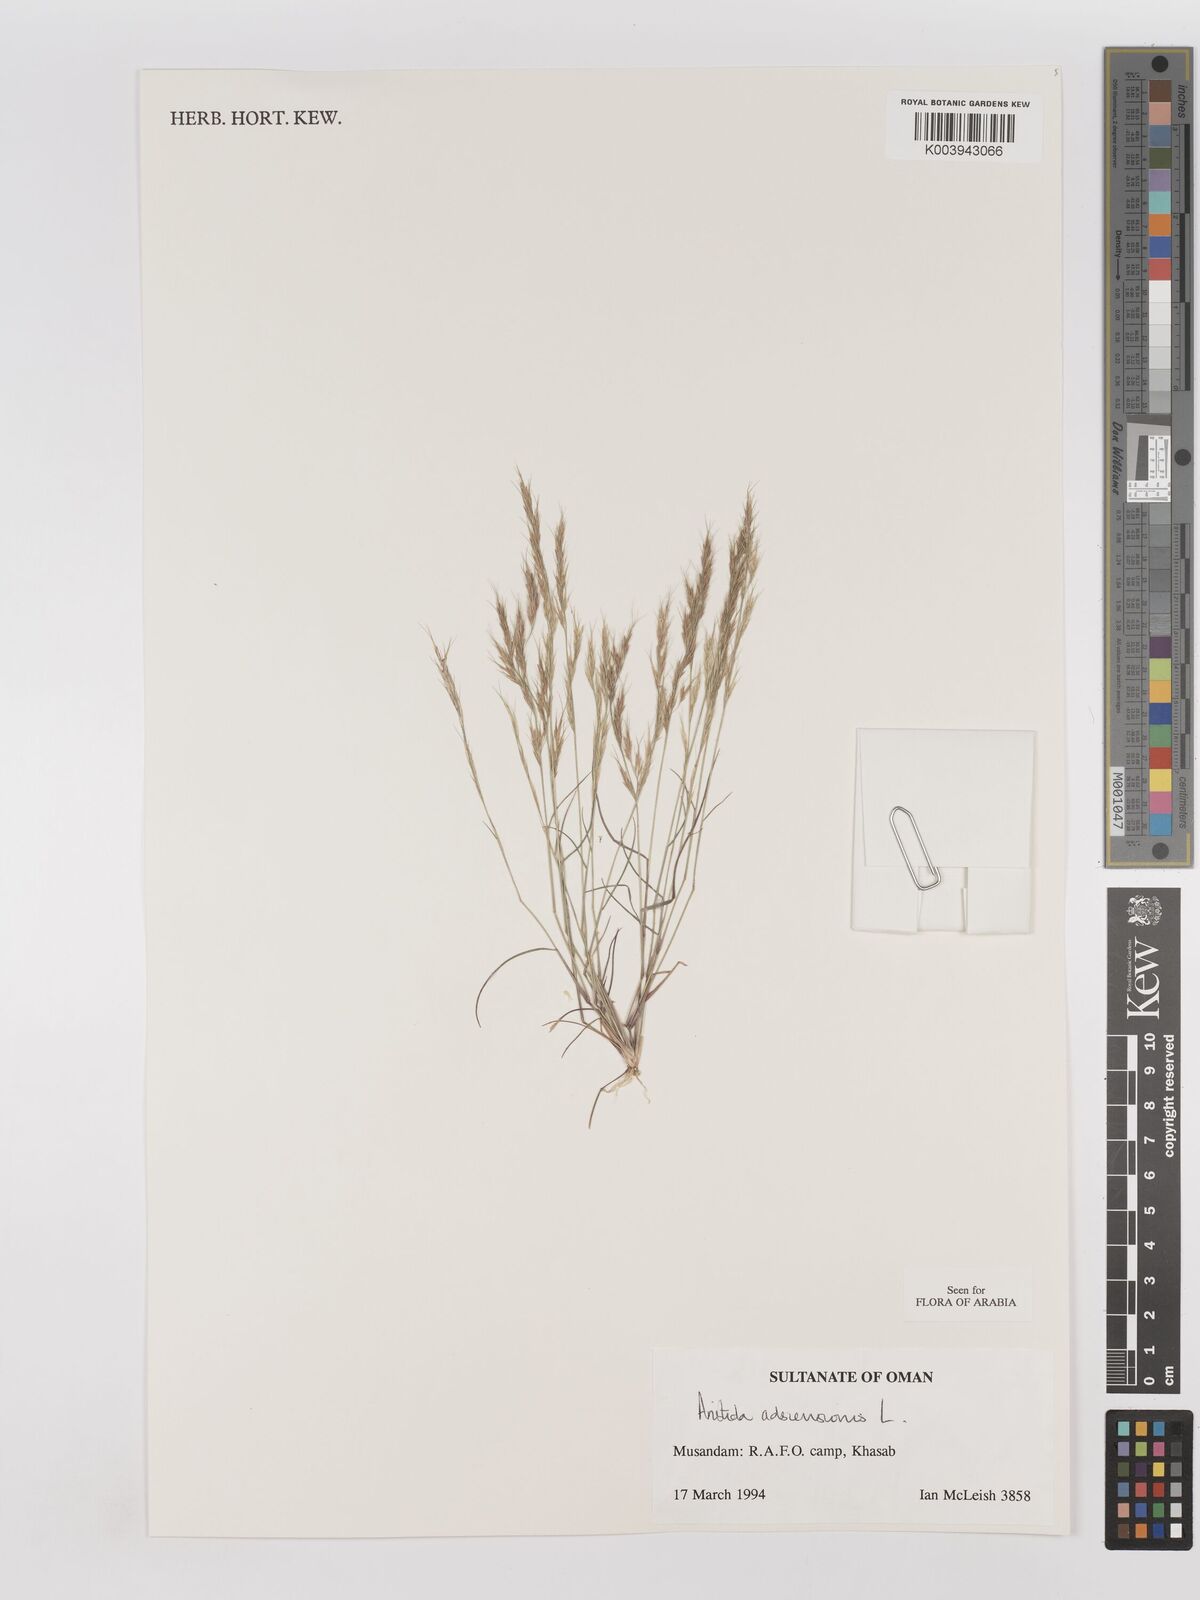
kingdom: Plantae
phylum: Tracheophyta
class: Liliopsida
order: Poales
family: Poaceae
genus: Aristida
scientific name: Aristida adscensionis
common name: Sixweeks threeawn
